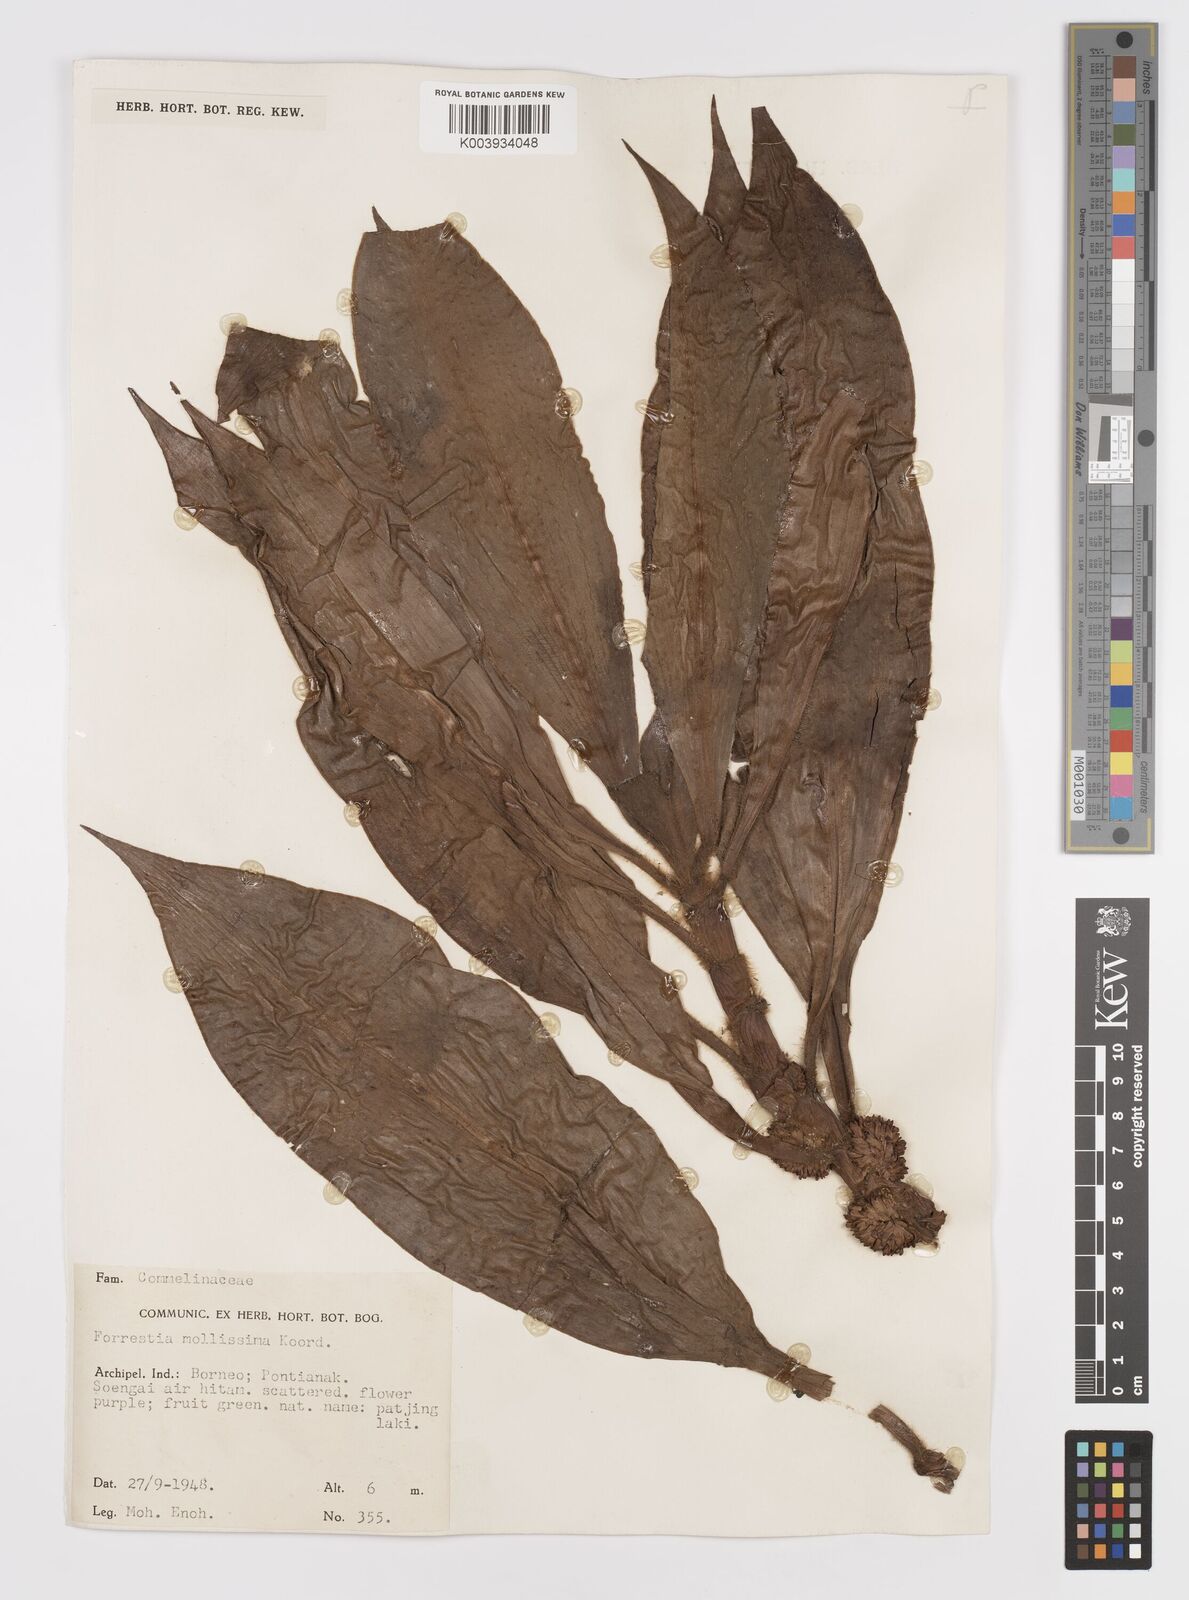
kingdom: Plantae
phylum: Tracheophyta
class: Liliopsida
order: Commelinales
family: Commelinaceae
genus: Amischotolype
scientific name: Amischotolype mollissima
